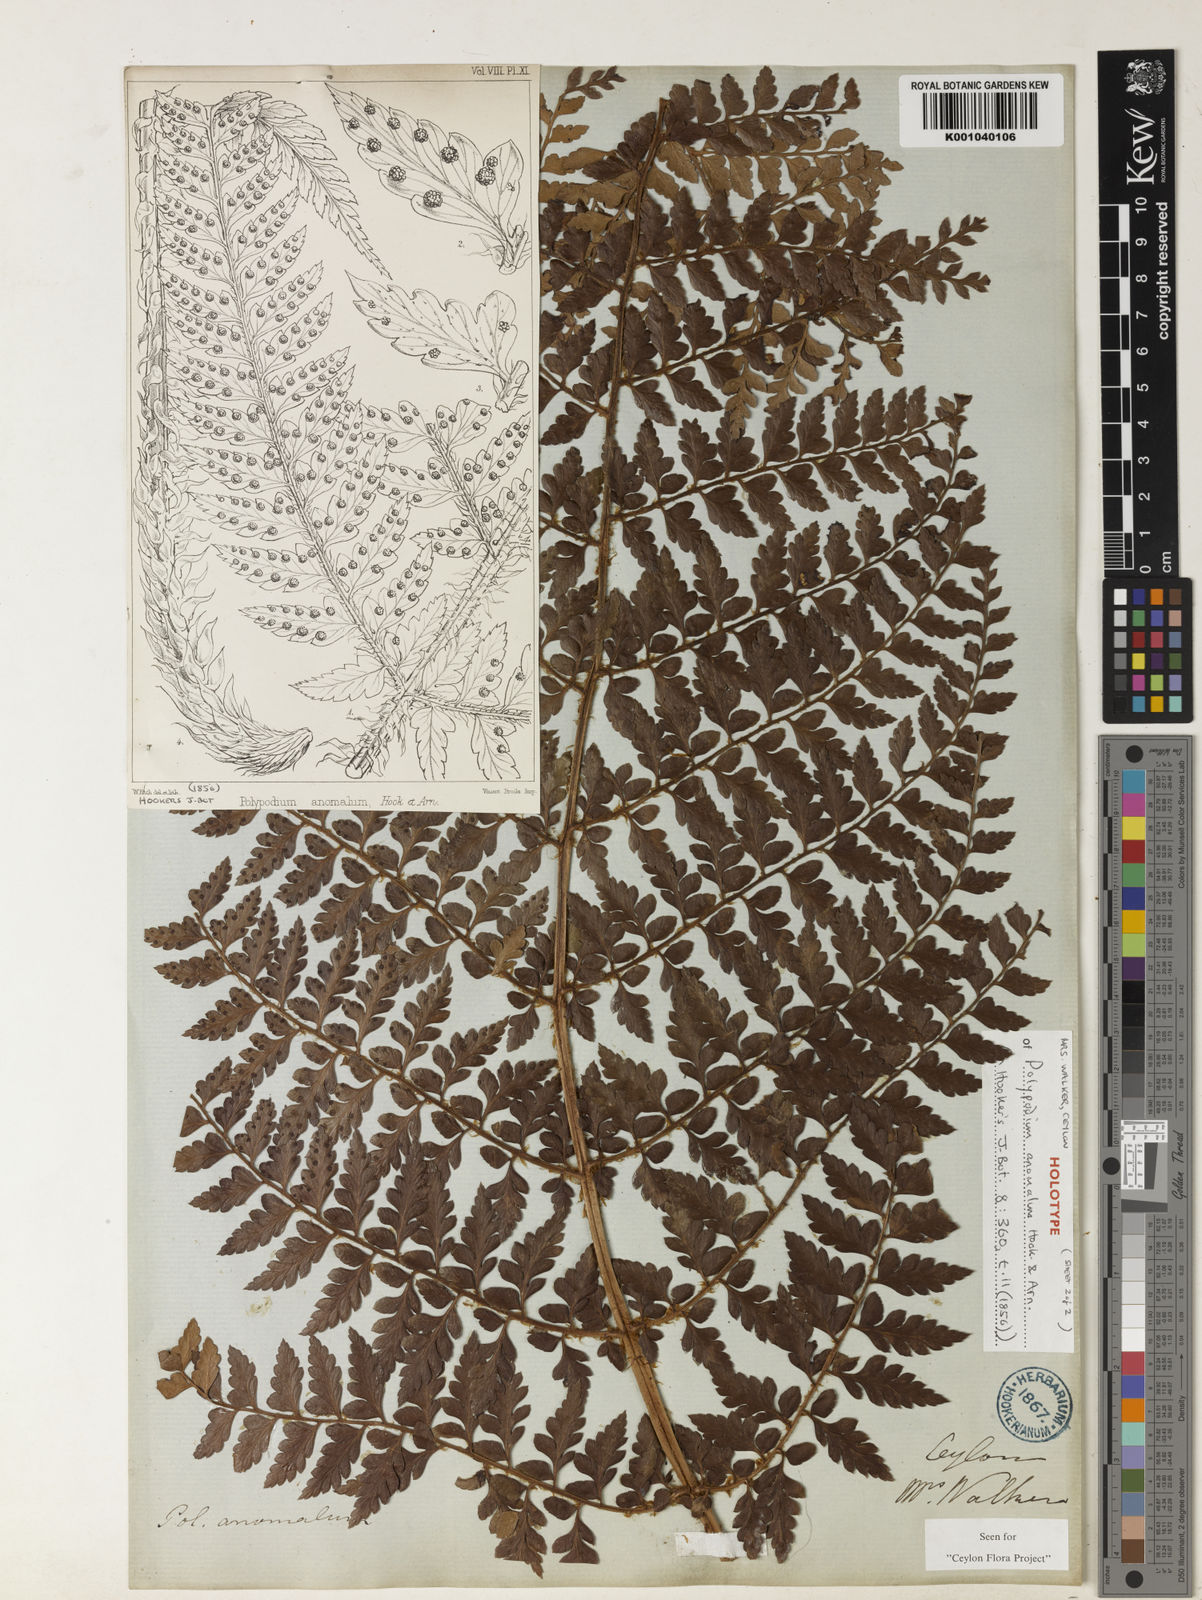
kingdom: Plantae
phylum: Tracheophyta
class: Polypodiopsida
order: Polypodiales
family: Dryopteridaceae
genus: Polystichum
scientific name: Polystichum anomalum
